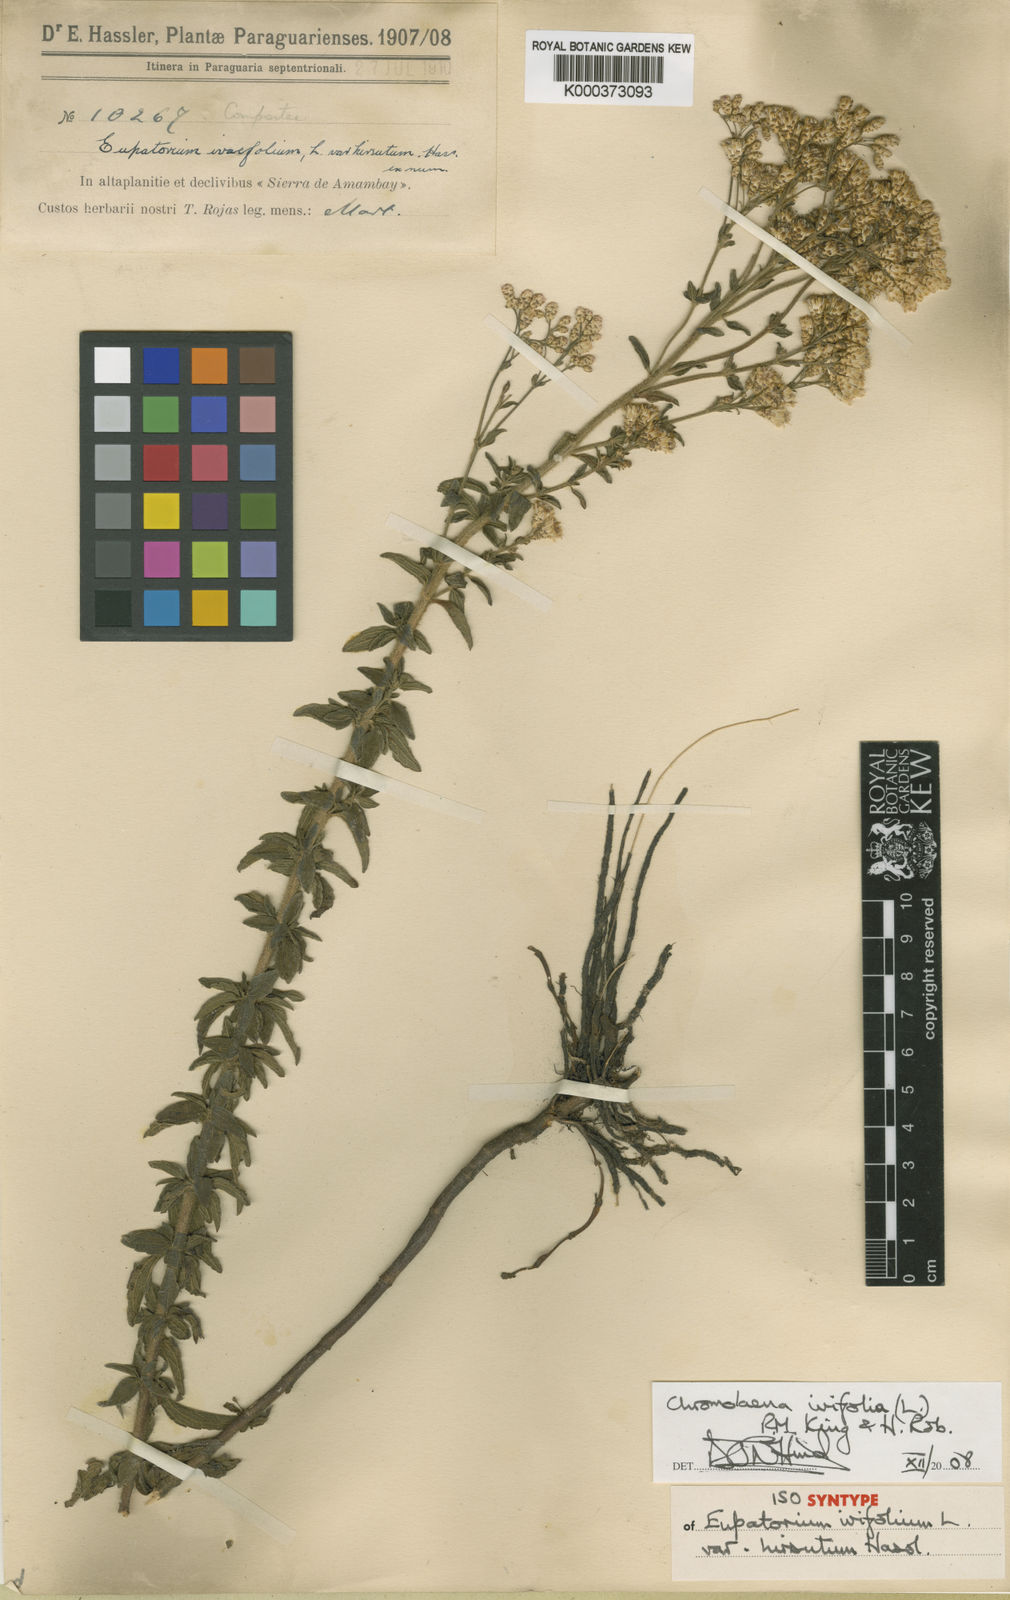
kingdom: Plantae
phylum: Tracheophyta
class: Magnoliopsida
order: Asterales
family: Asteraceae
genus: Chromolaena
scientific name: Chromolaena ivifolia
